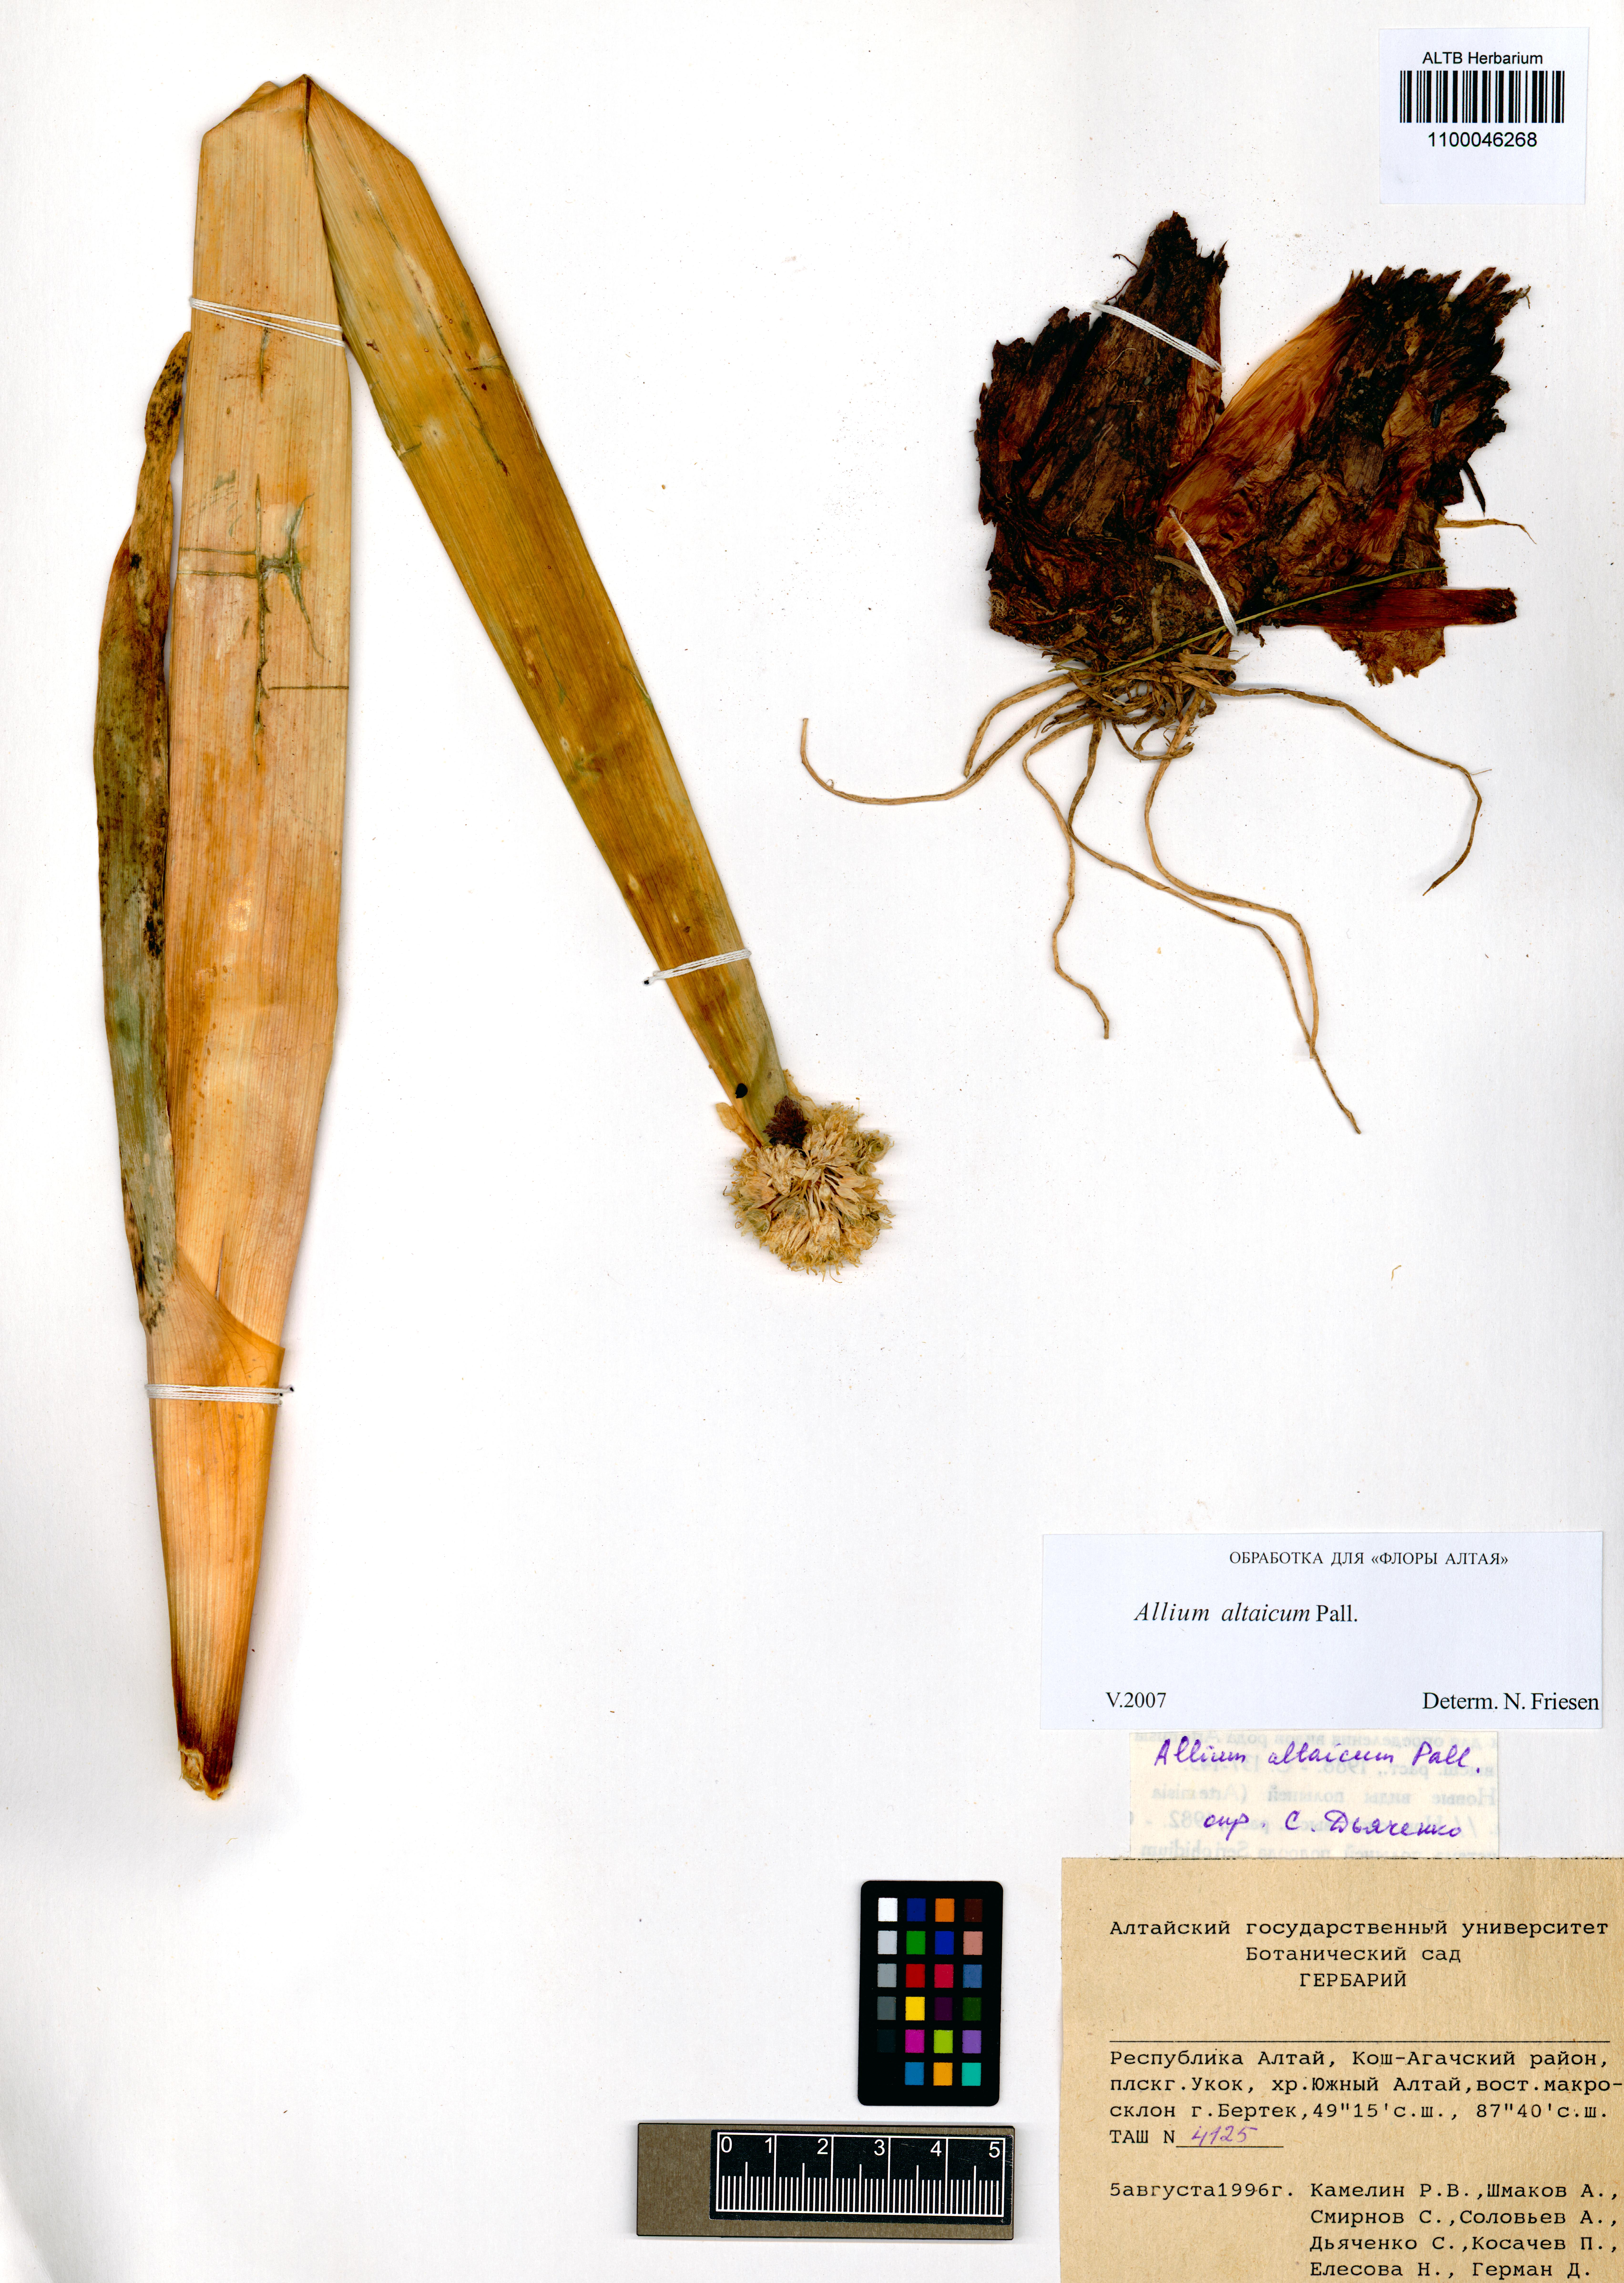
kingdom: Plantae
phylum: Tracheophyta
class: Liliopsida
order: Asparagales
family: Amaryllidaceae
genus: Allium
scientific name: Allium altaicum
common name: Altai onion
